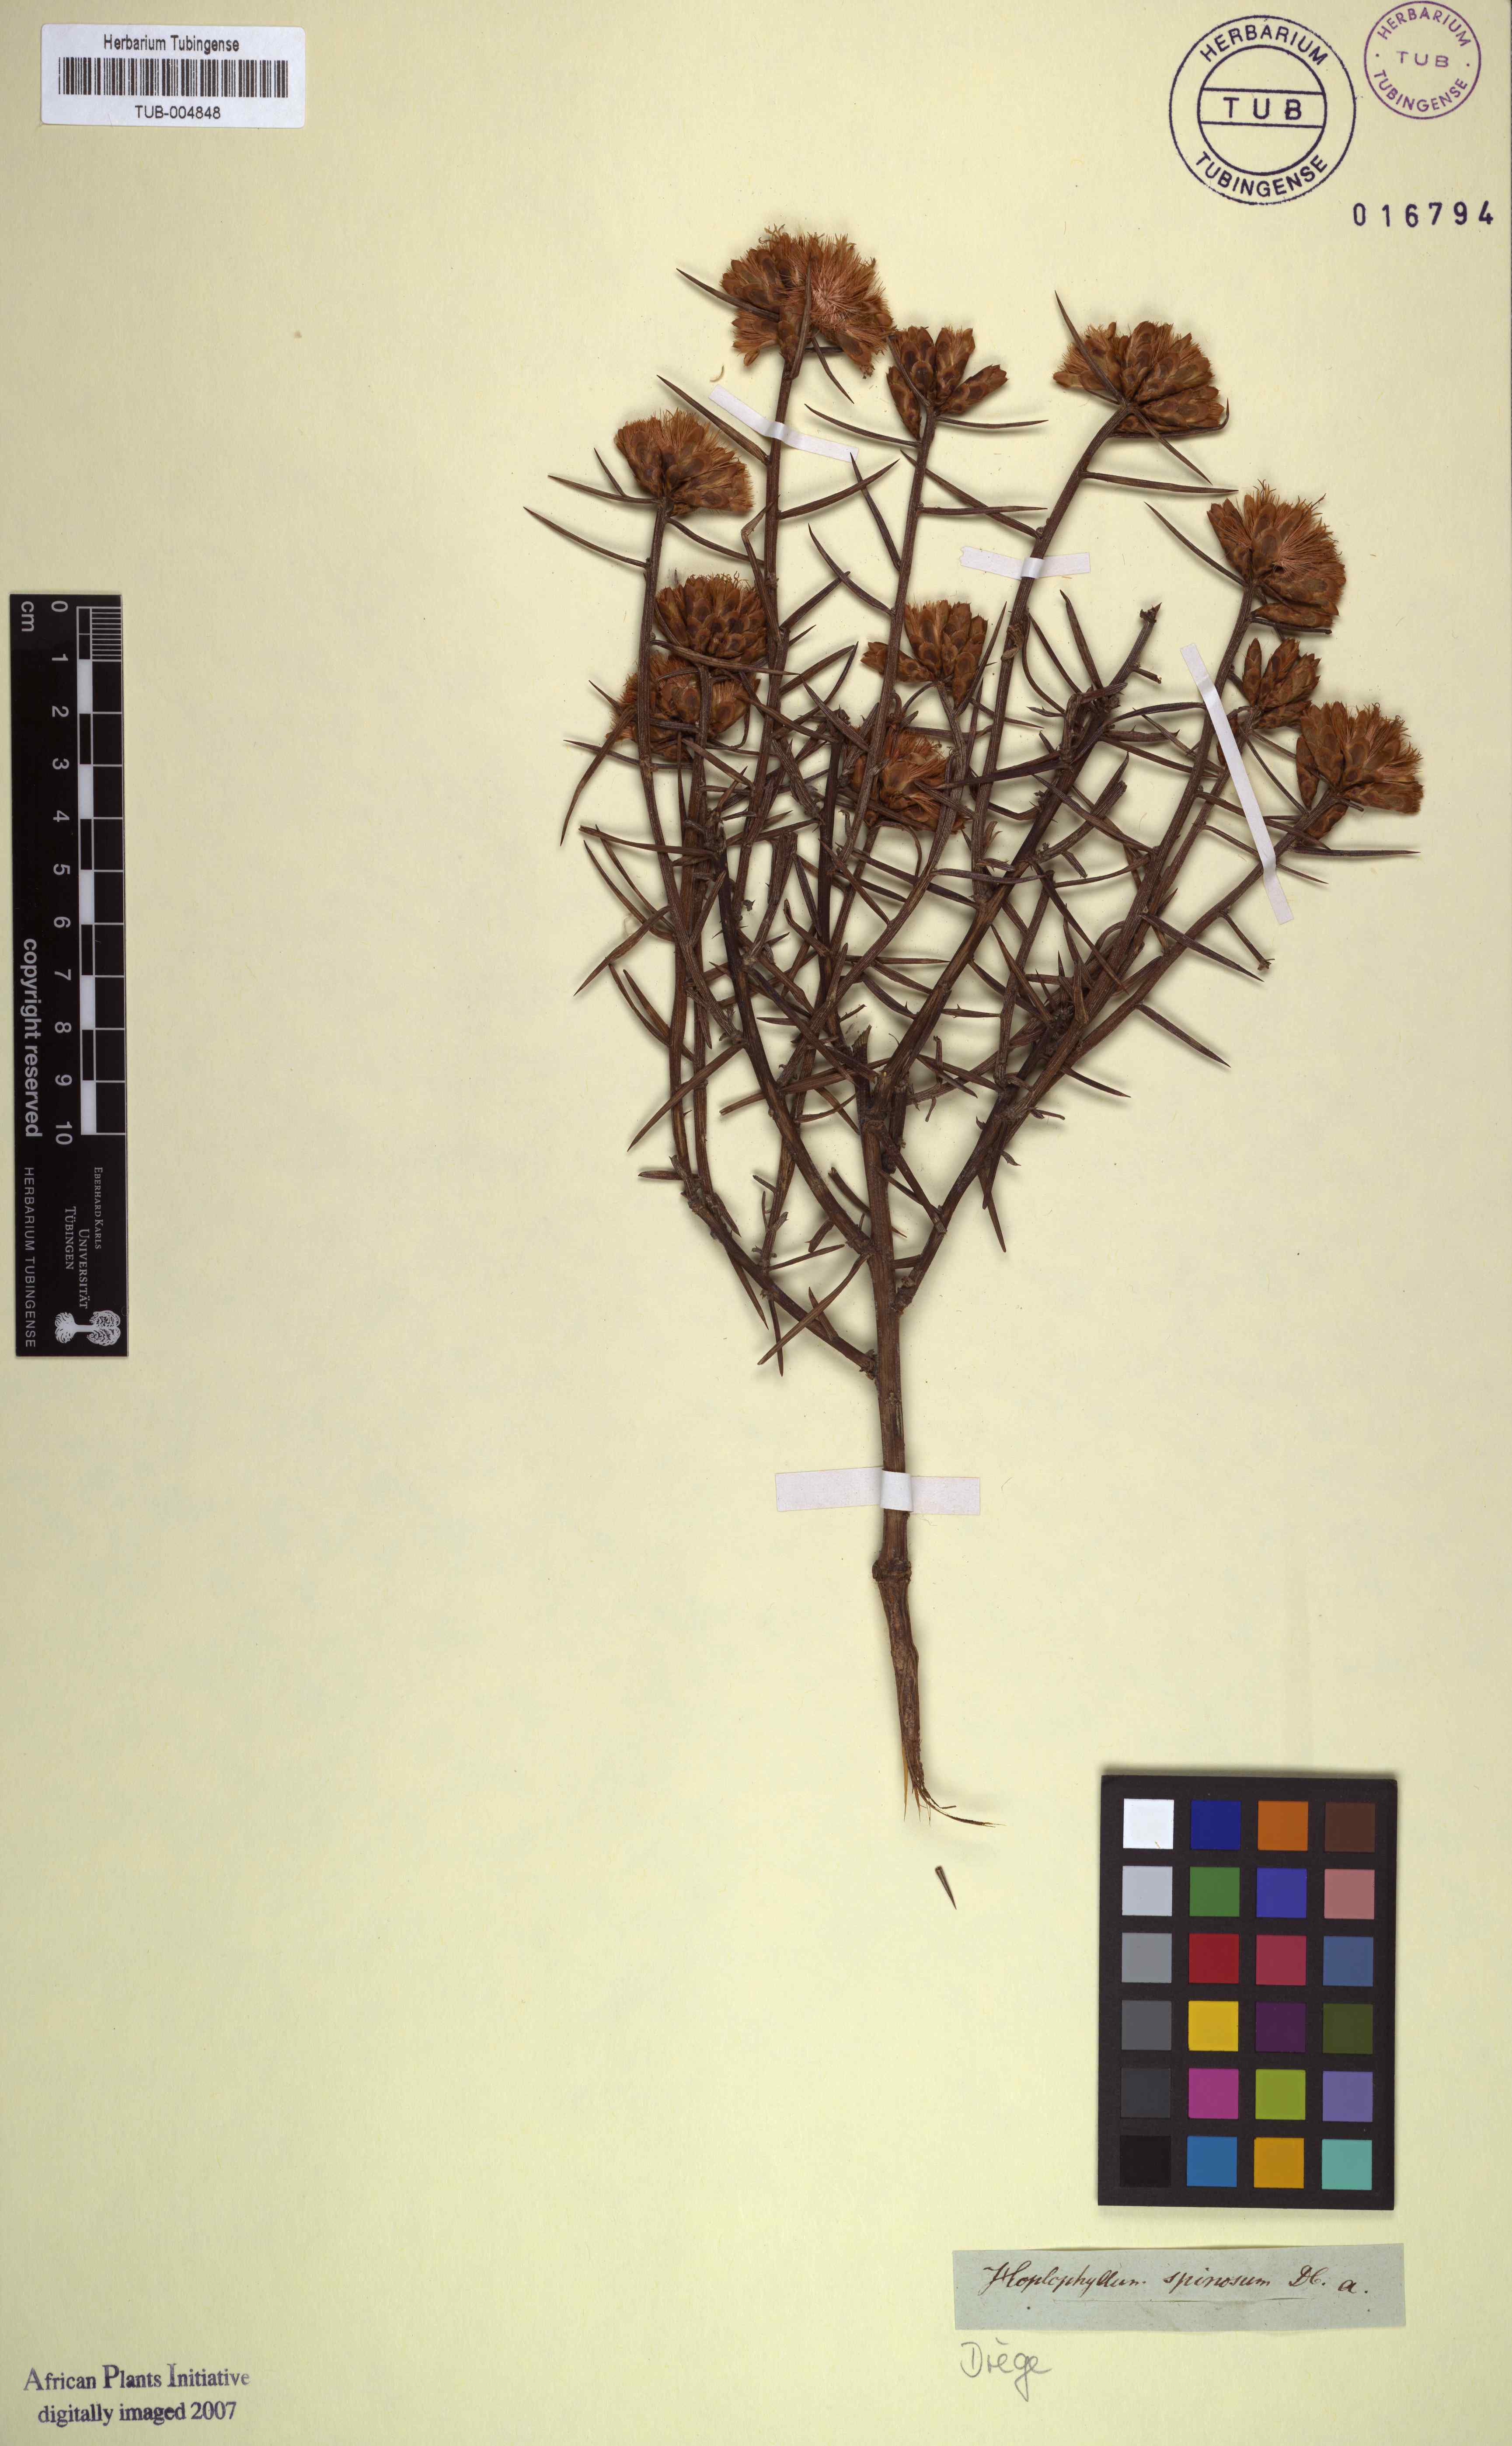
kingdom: Plantae
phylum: Tracheophyta
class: Magnoliopsida
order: Asterales
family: Asteraceae
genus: Hoplophyllum
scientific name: Hoplophyllum spinosum
